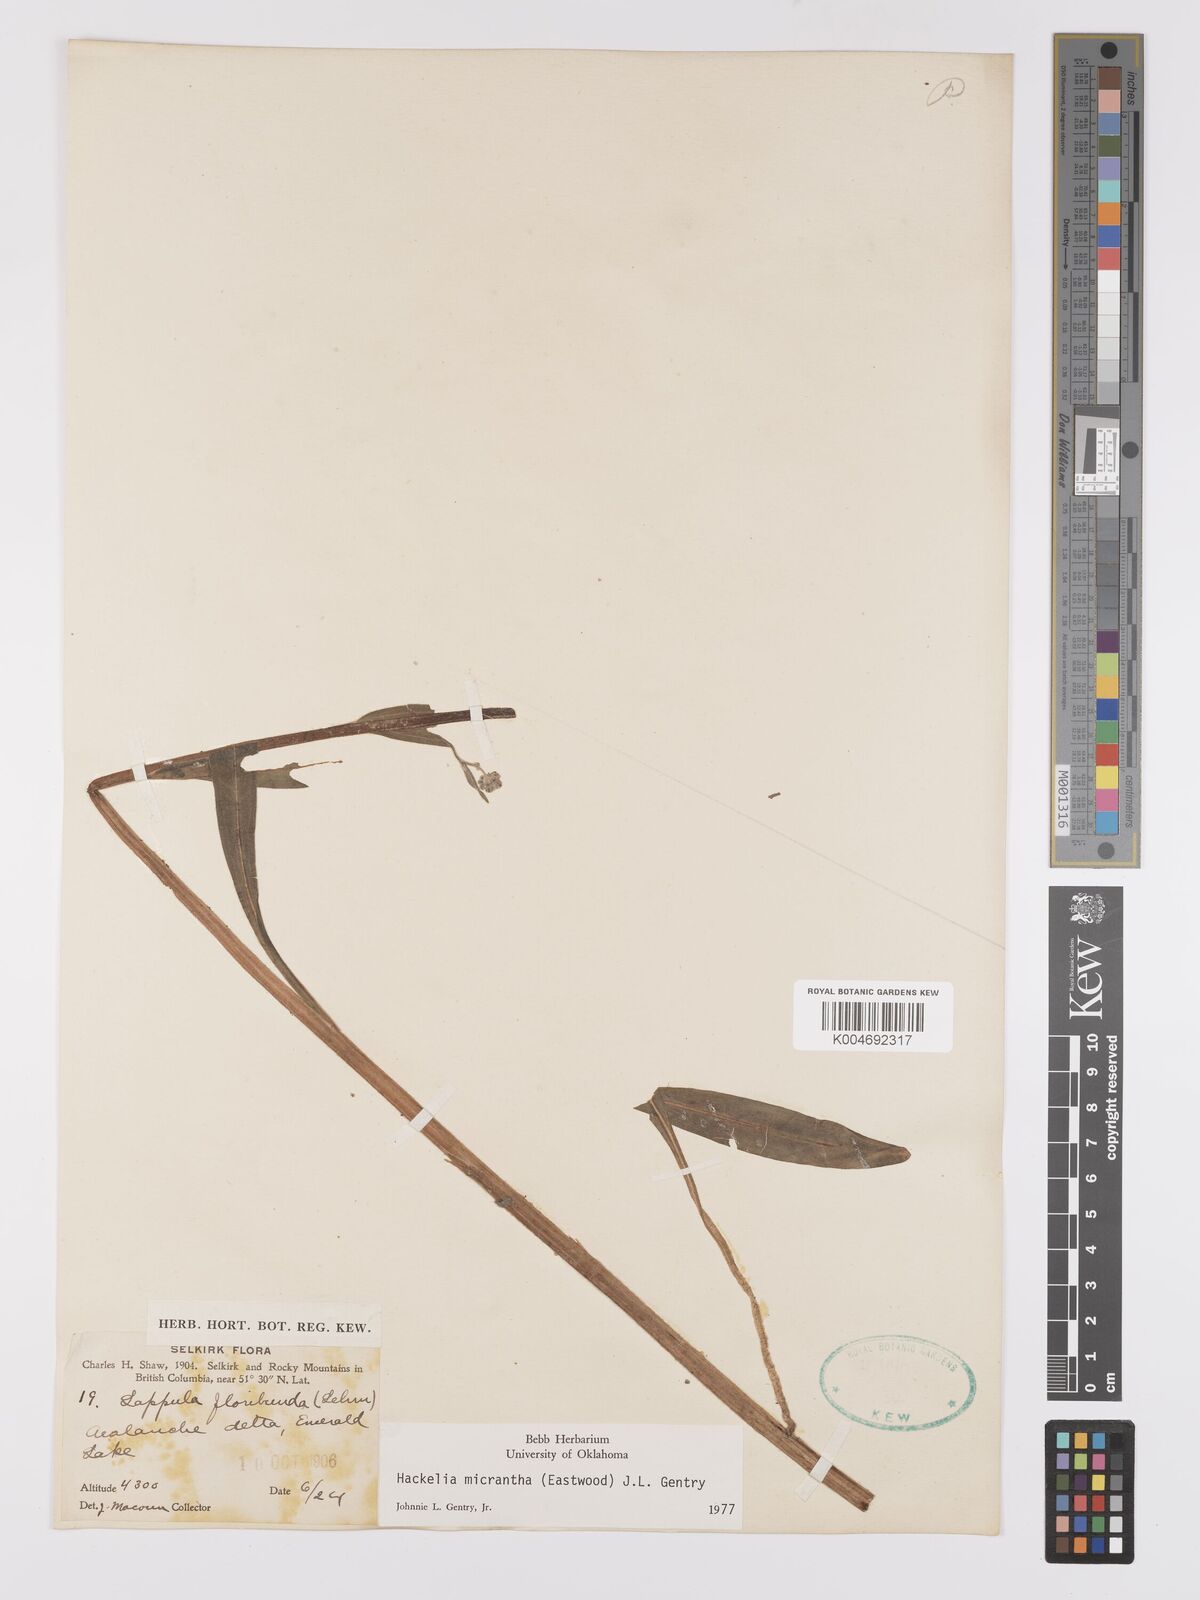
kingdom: Plantae
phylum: Tracheophyta
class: Magnoliopsida
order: Boraginales
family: Boraginaceae
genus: Hackelia
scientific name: Hackelia diffusa
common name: Spreading hackelia
